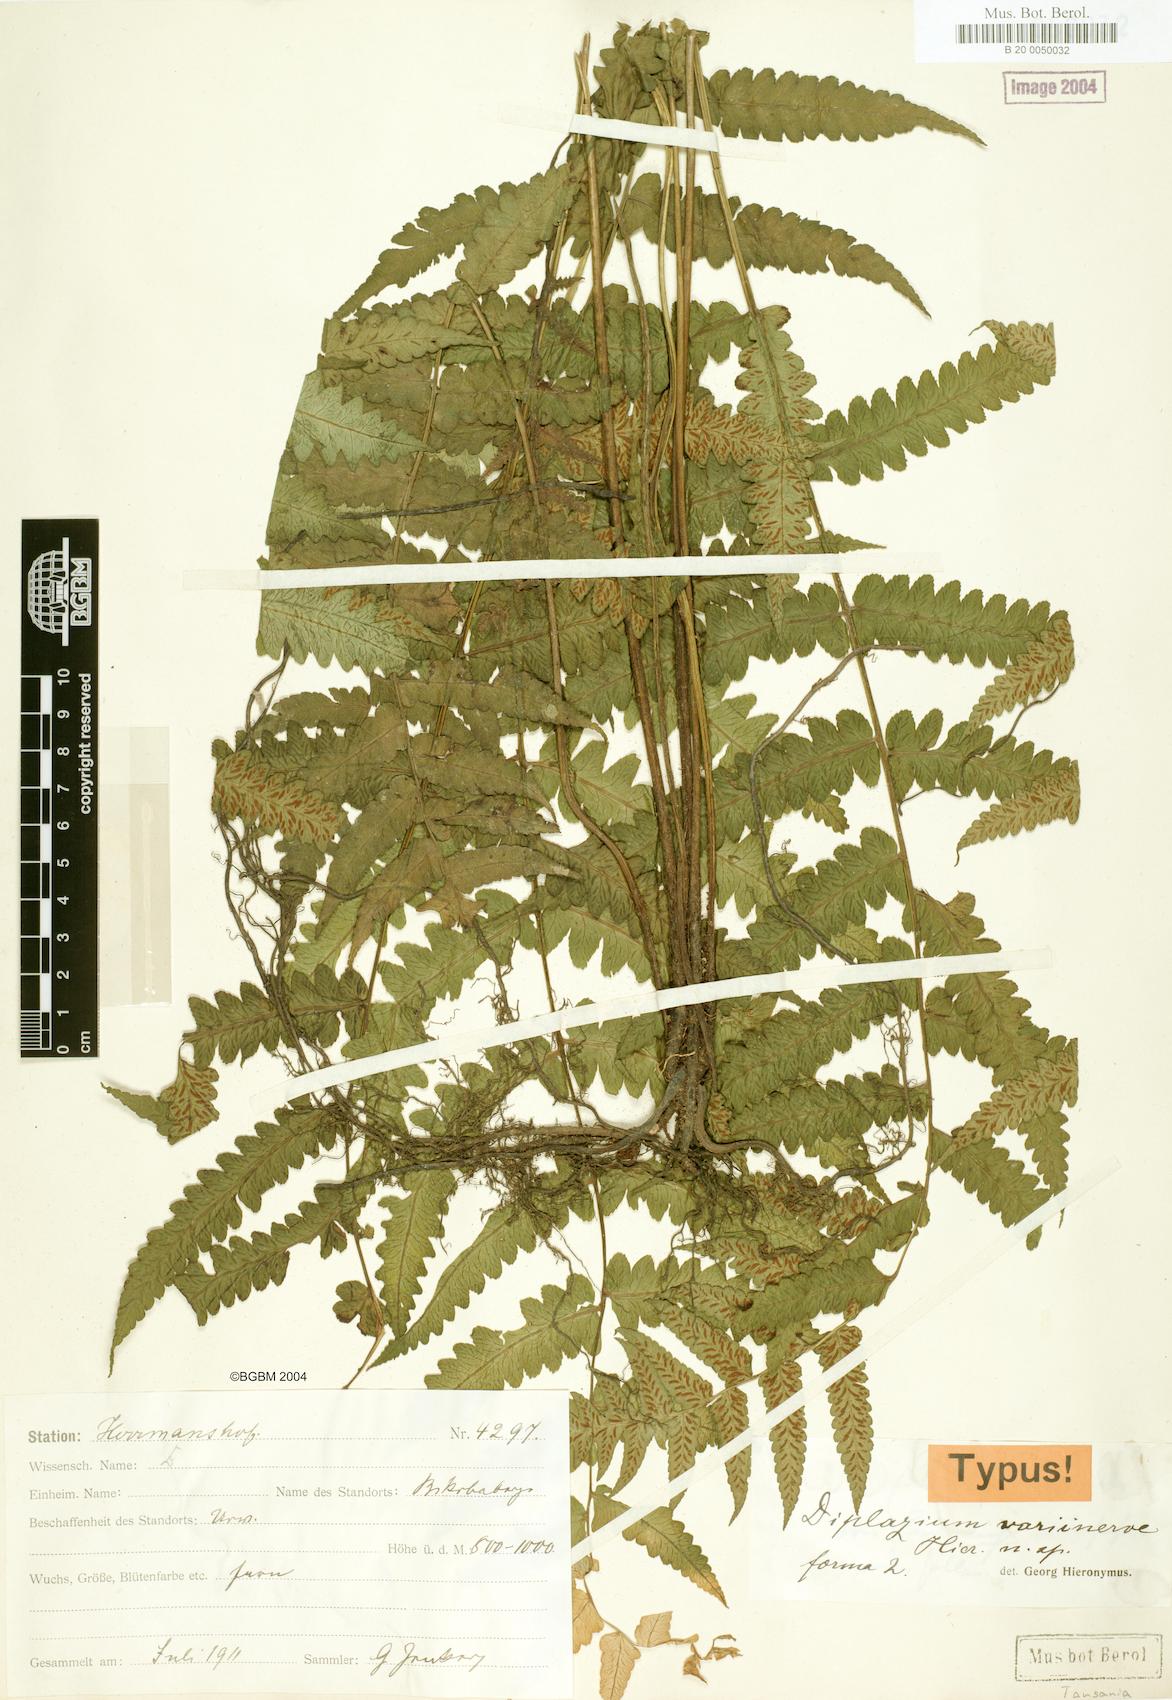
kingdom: Plantae
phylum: Tracheophyta
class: Polypodiopsida
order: Polypodiales
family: Athyriaceae
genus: Diplazium
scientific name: Diplazium welwitschii
